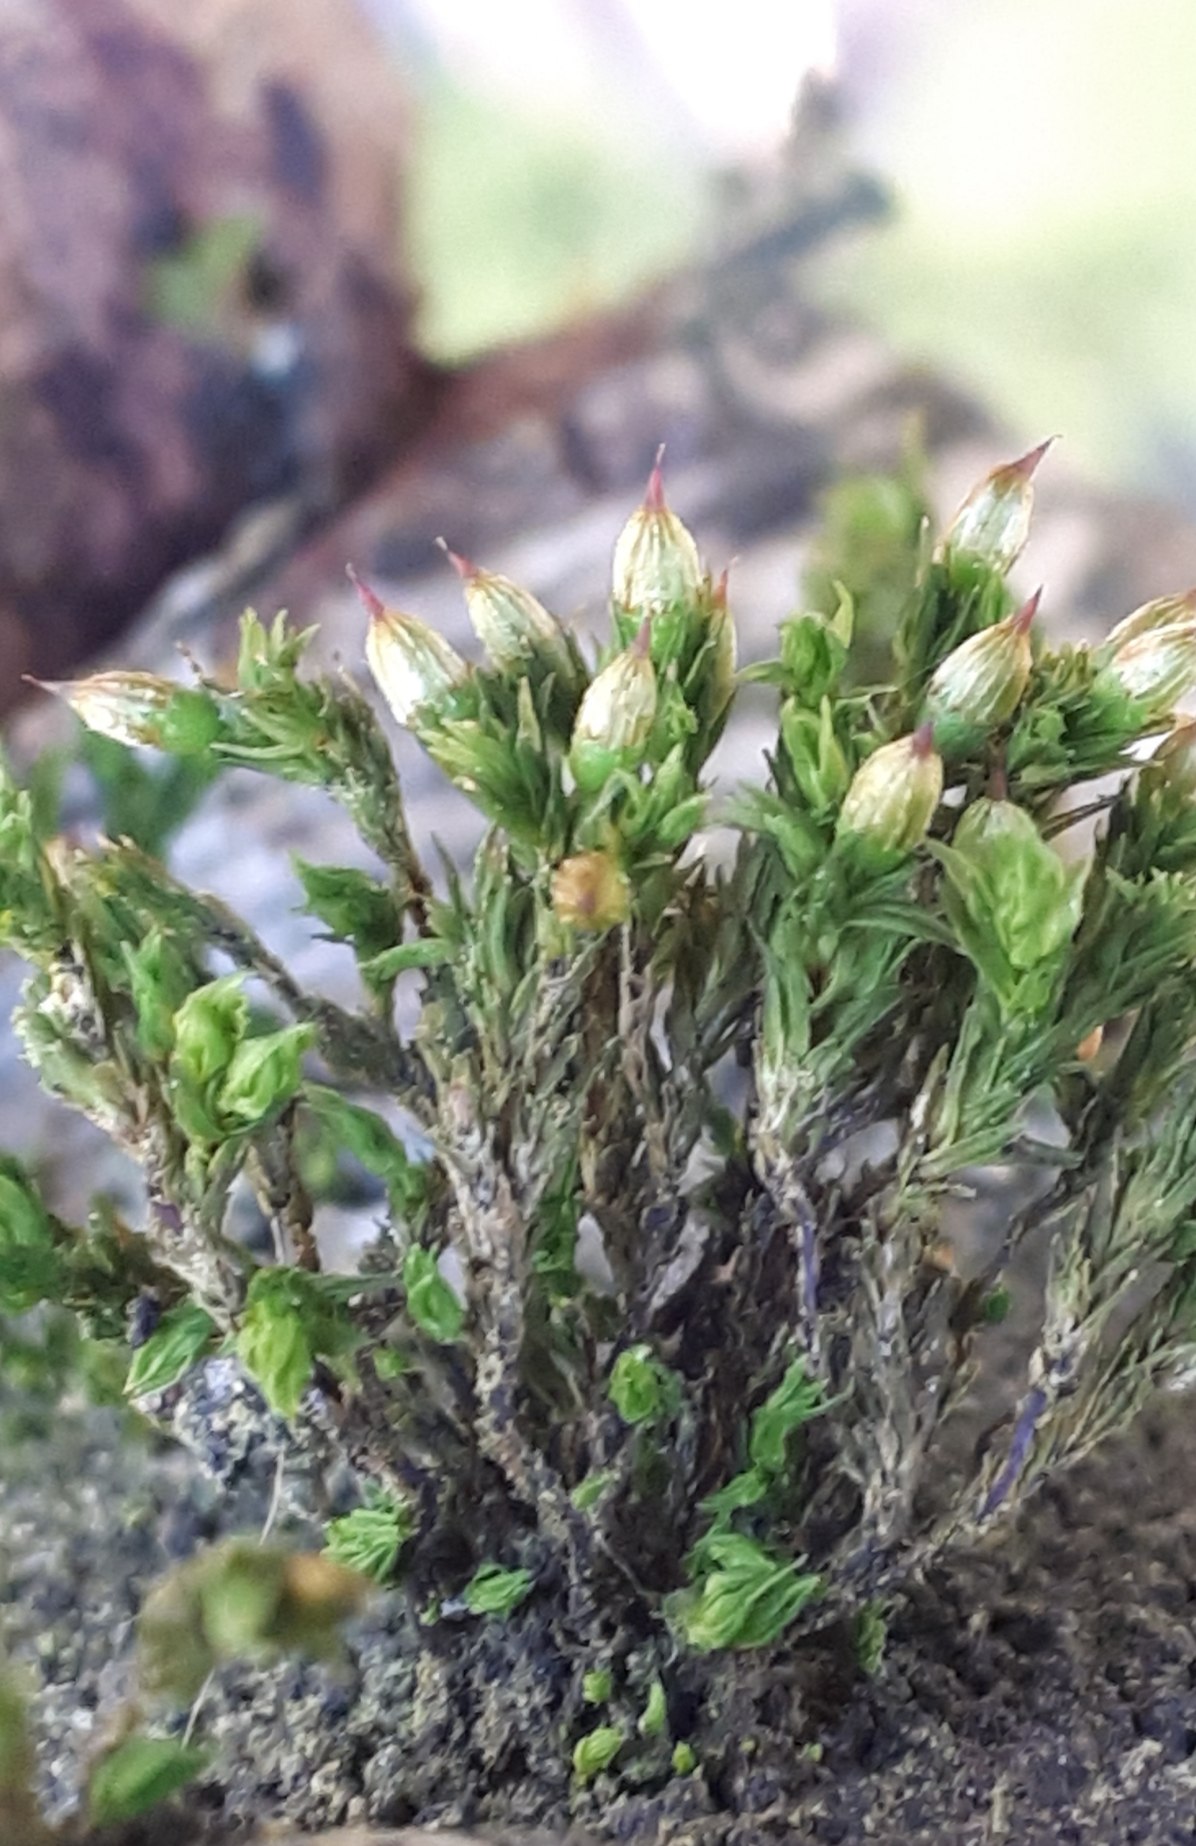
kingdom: Plantae
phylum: Bryophyta
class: Bryopsida
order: Orthotrichales
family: Orthotrichaceae
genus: Orthotrichum
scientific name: Orthotrichum stramineum
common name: Strågul furehætte
